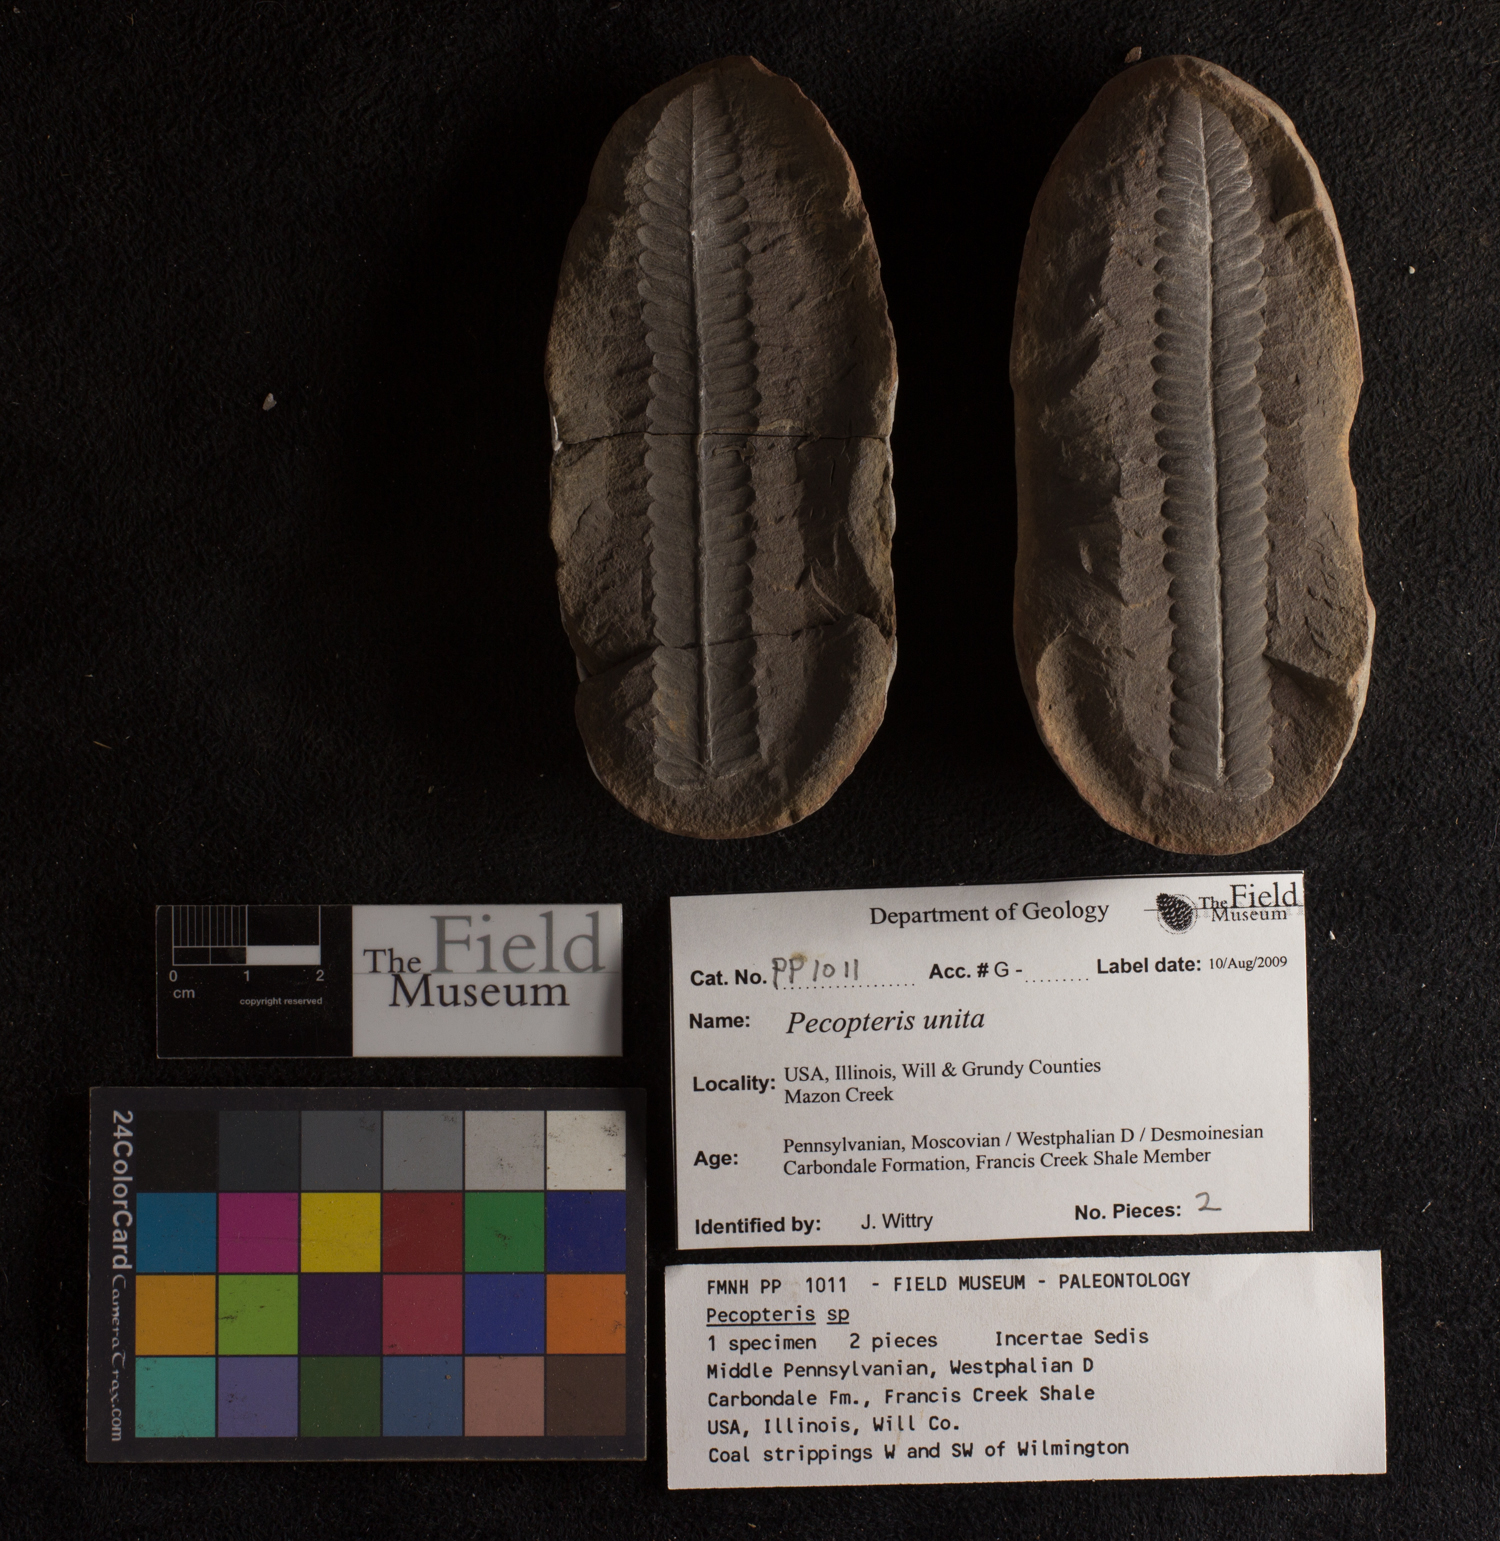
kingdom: Plantae
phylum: Tracheophyta
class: Polypodiopsida
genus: Diplazites
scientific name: Diplazites
